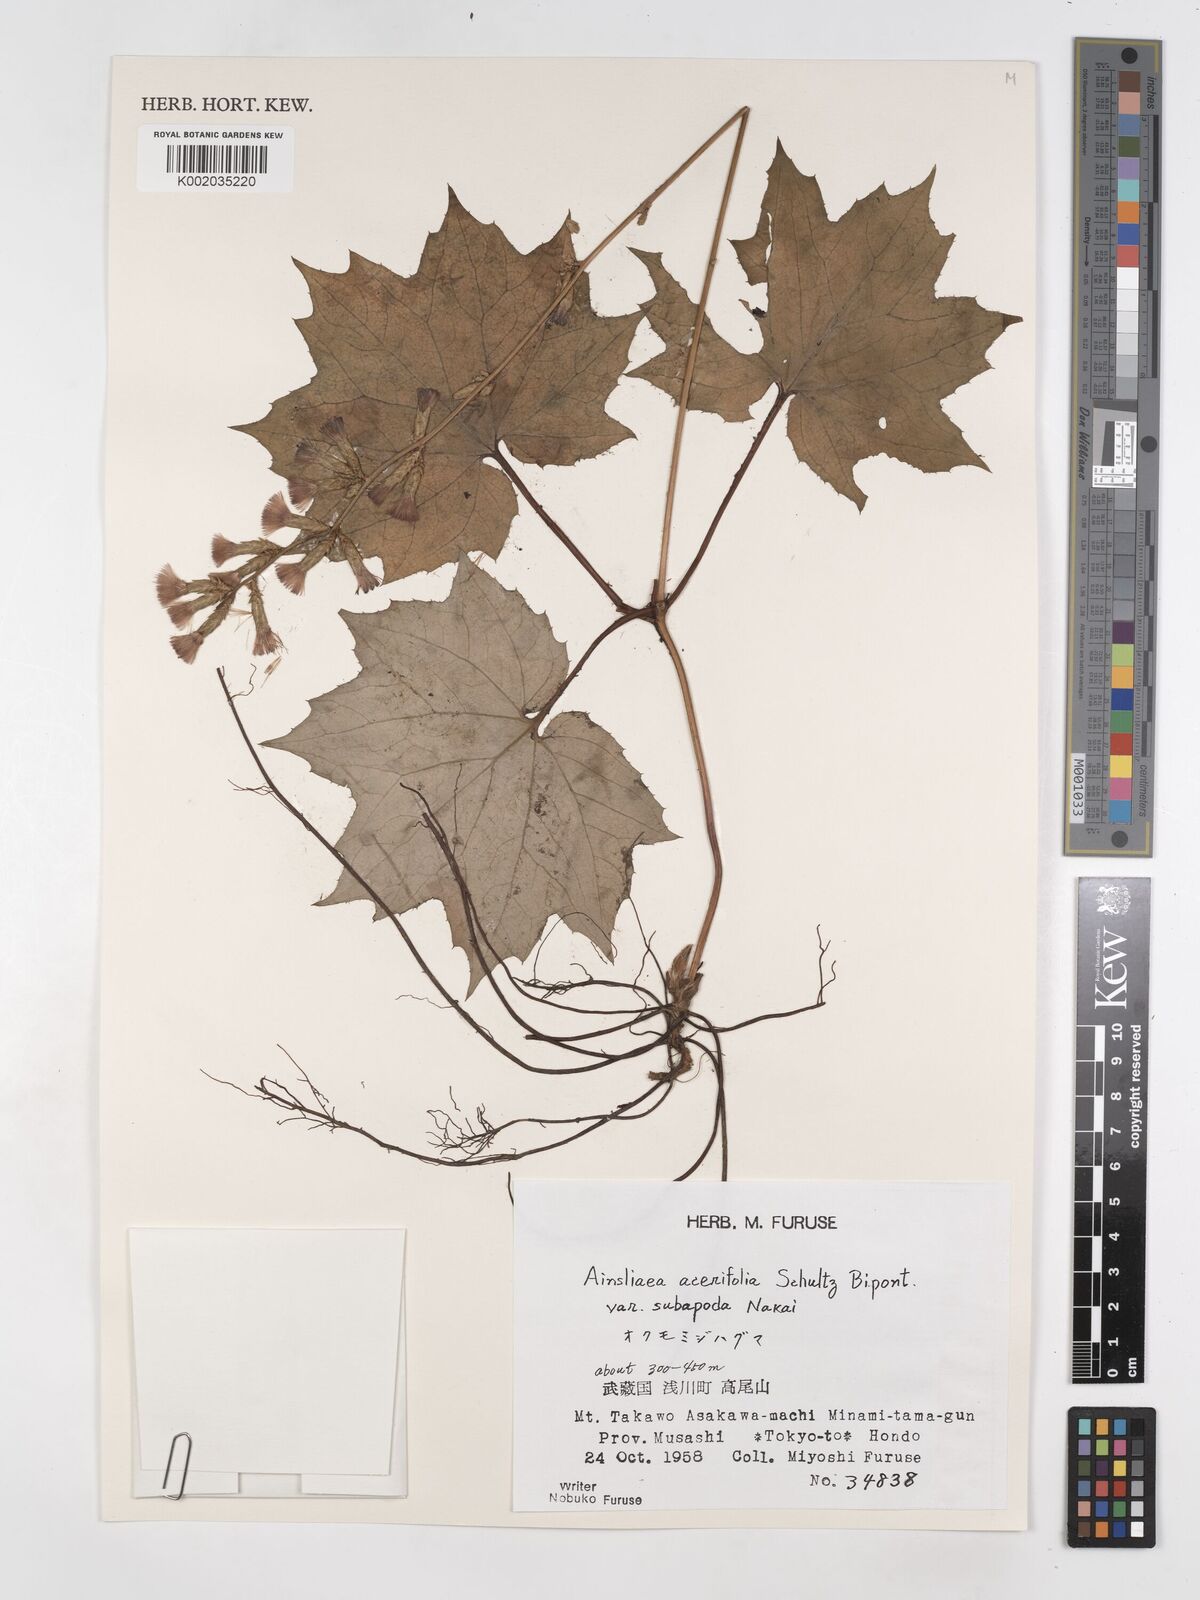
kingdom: Plantae
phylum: Tracheophyta
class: Magnoliopsida
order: Asterales
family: Asteraceae
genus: Ainsliaea
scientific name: Ainsliaea acerifolia
